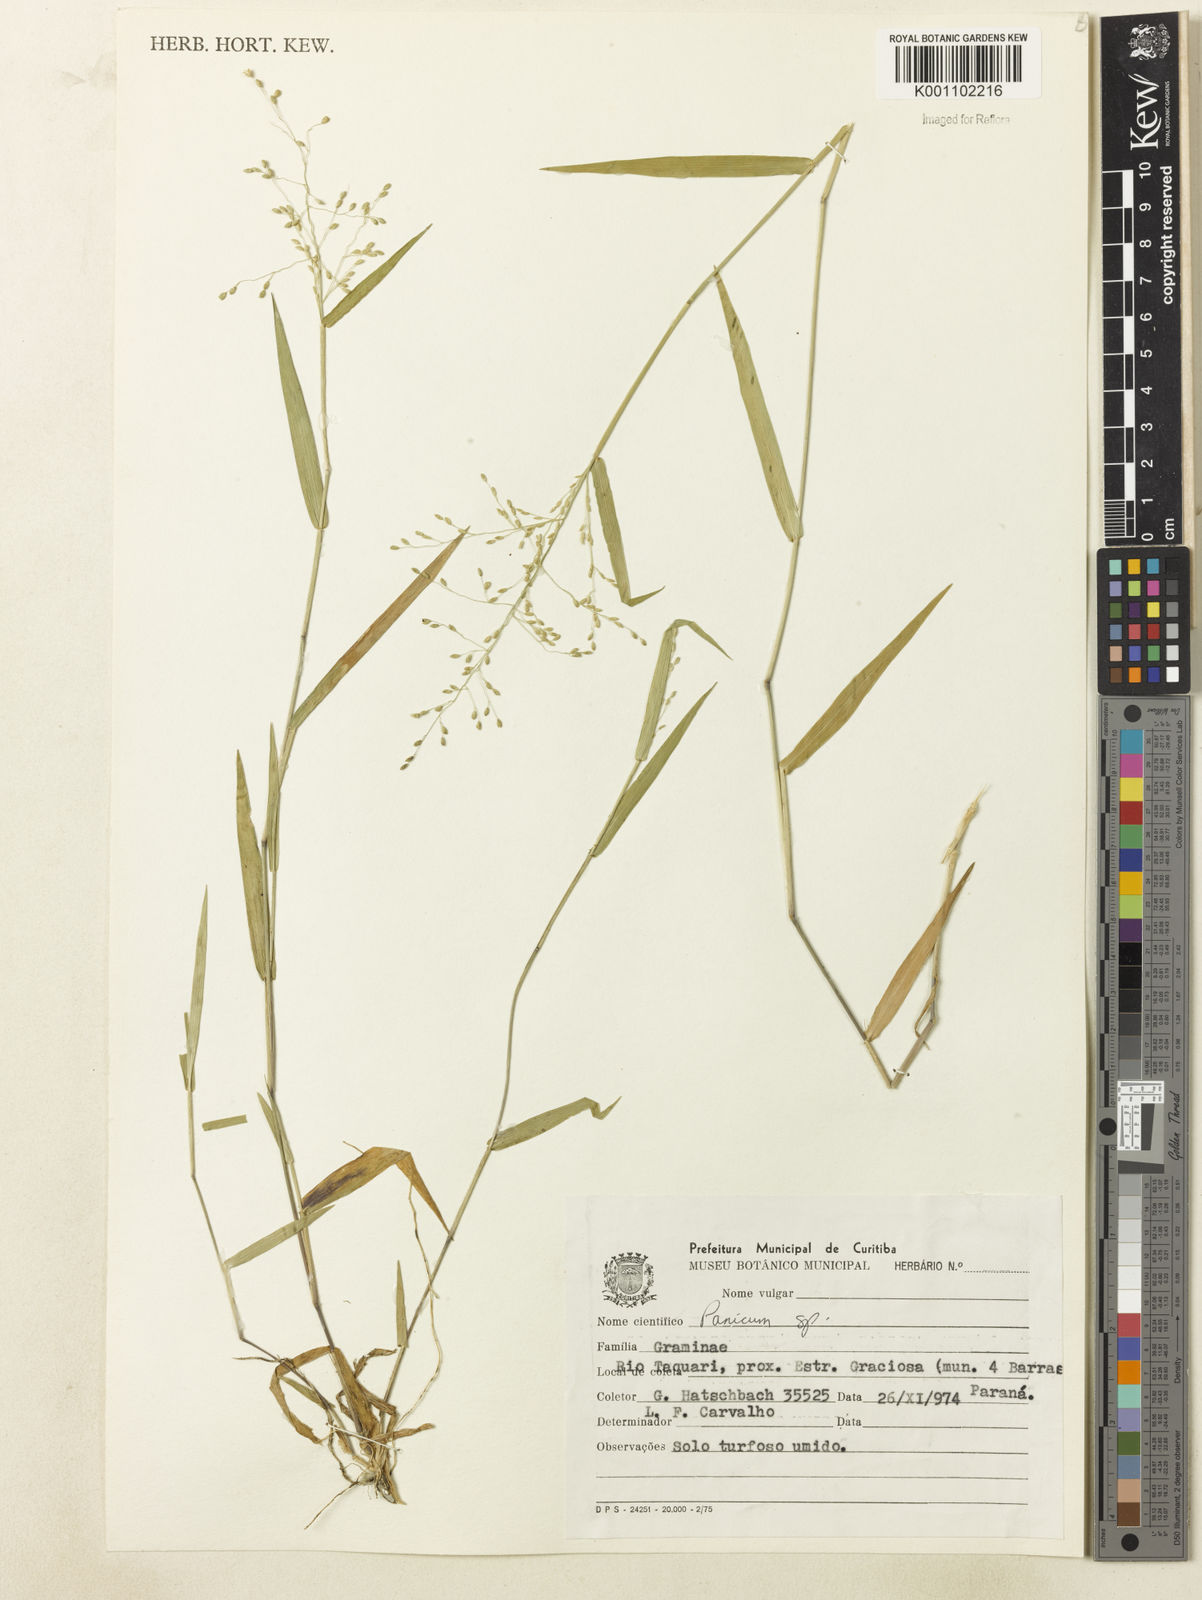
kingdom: Plantae
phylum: Tracheophyta
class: Liliopsida
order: Poales
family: Poaceae
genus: Dichanthelium
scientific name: Dichanthelium sabulorum
